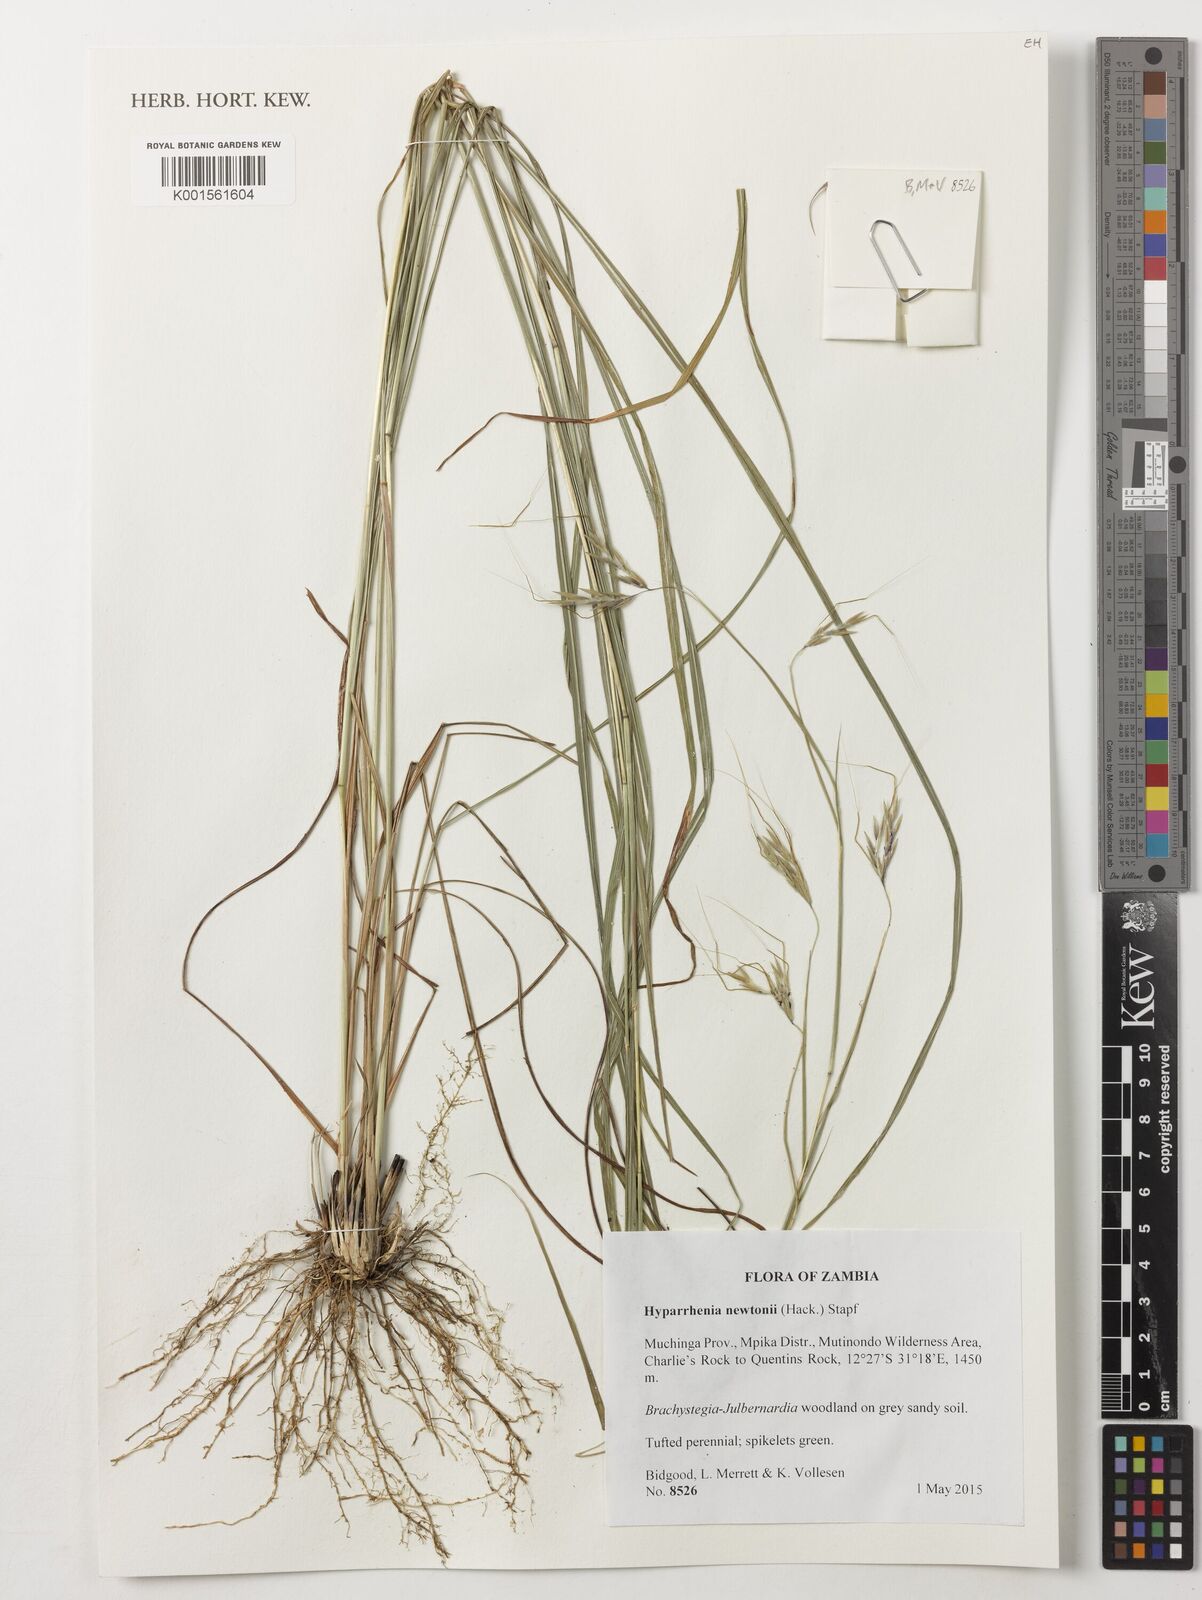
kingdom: Plantae
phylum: Tracheophyta
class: Liliopsida
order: Poales
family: Poaceae
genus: Hyparrhenia
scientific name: Hyparrhenia newtonii
